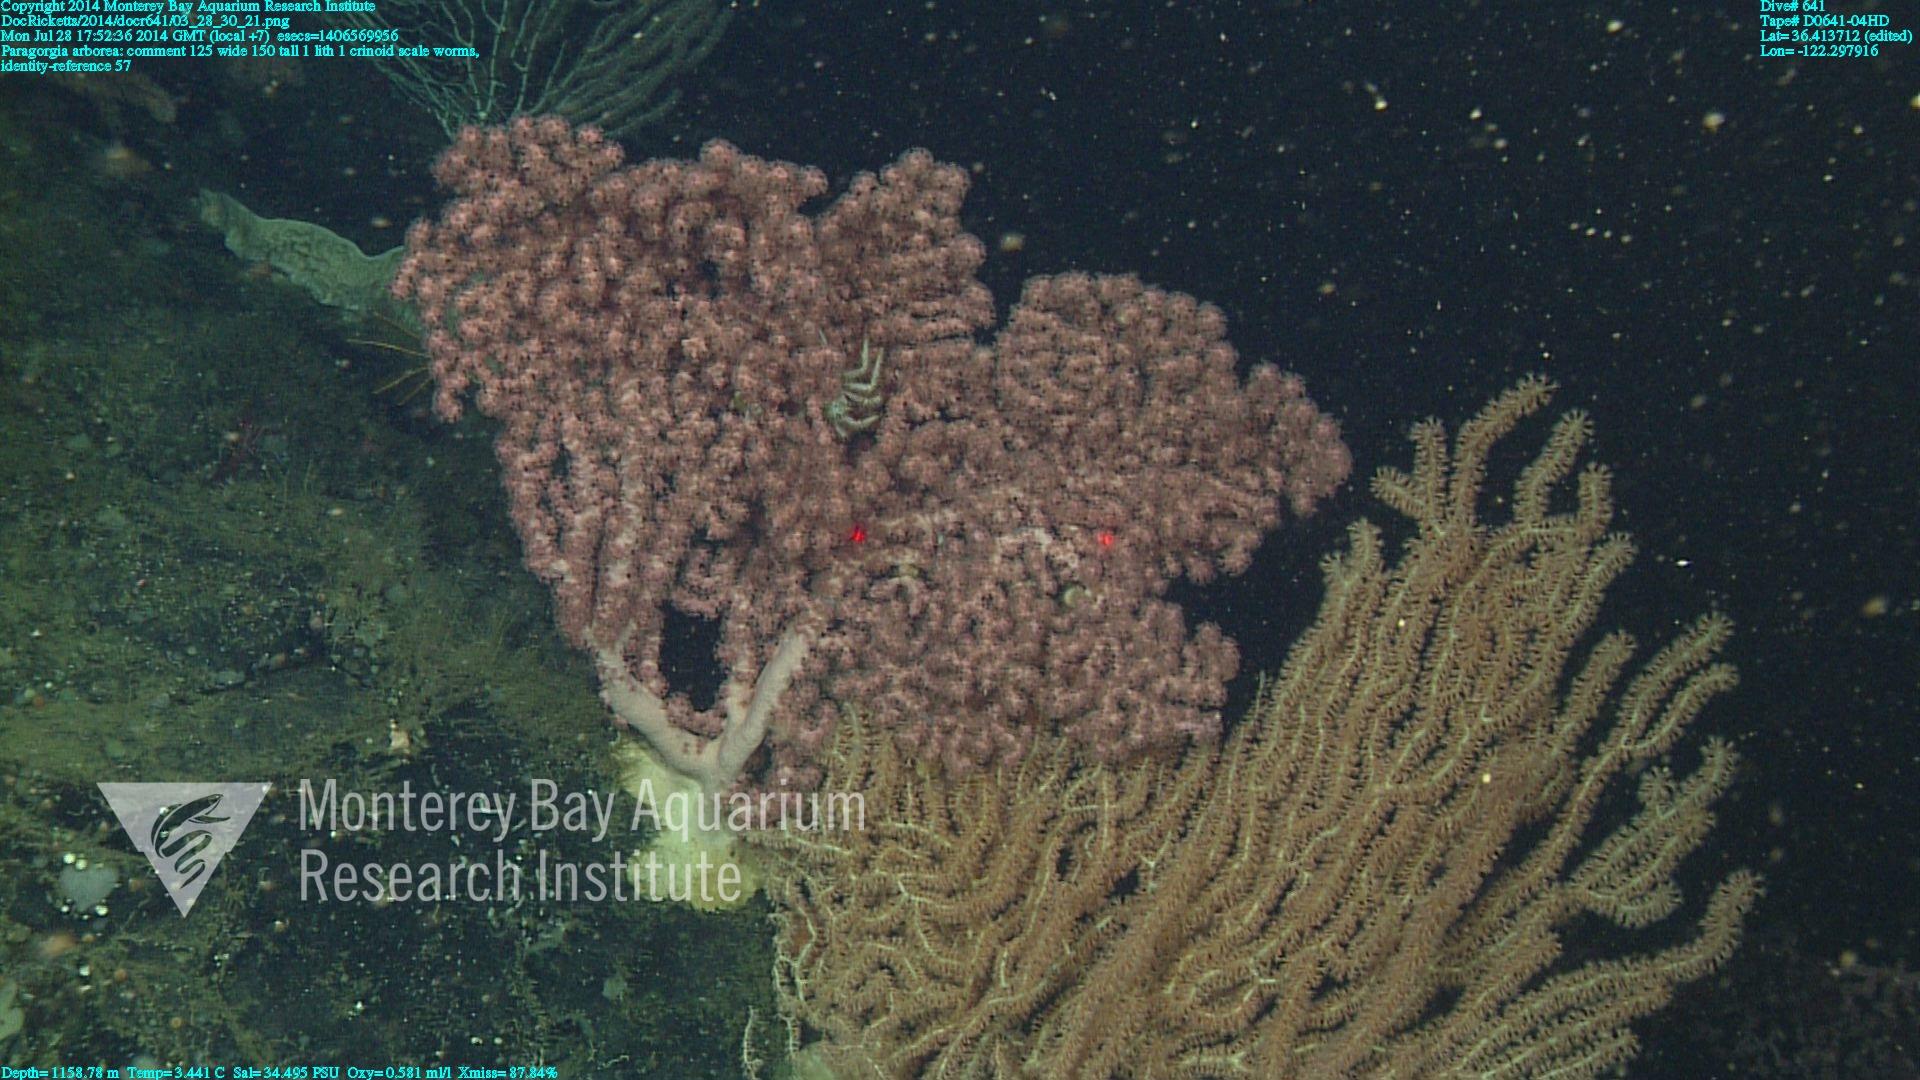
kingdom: Animalia
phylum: Cnidaria
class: Anthozoa
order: Scleralcyonacea
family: Coralliidae
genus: Paragorgia
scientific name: Paragorgia arborea
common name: Bubble gum coral
